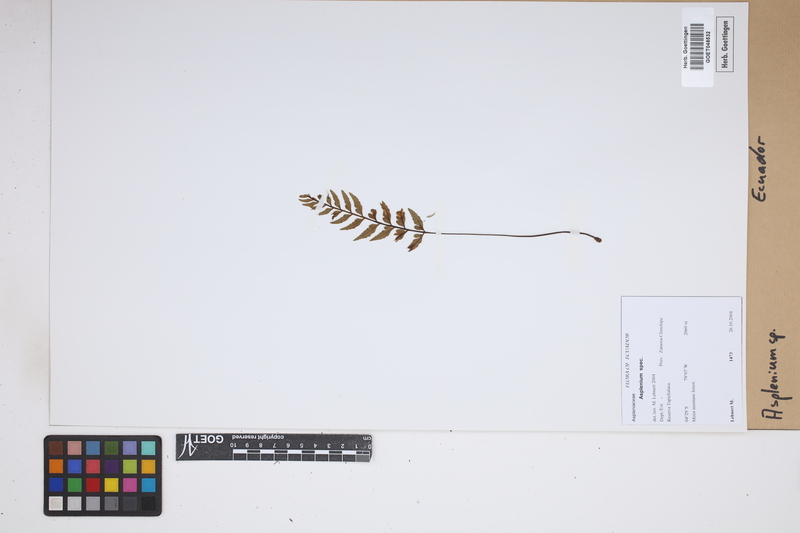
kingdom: Plantae
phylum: Tracheophyta
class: Polypodiopsida
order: Polypodiales
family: Aspleniaceae
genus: Asplenium
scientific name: Asplenium
